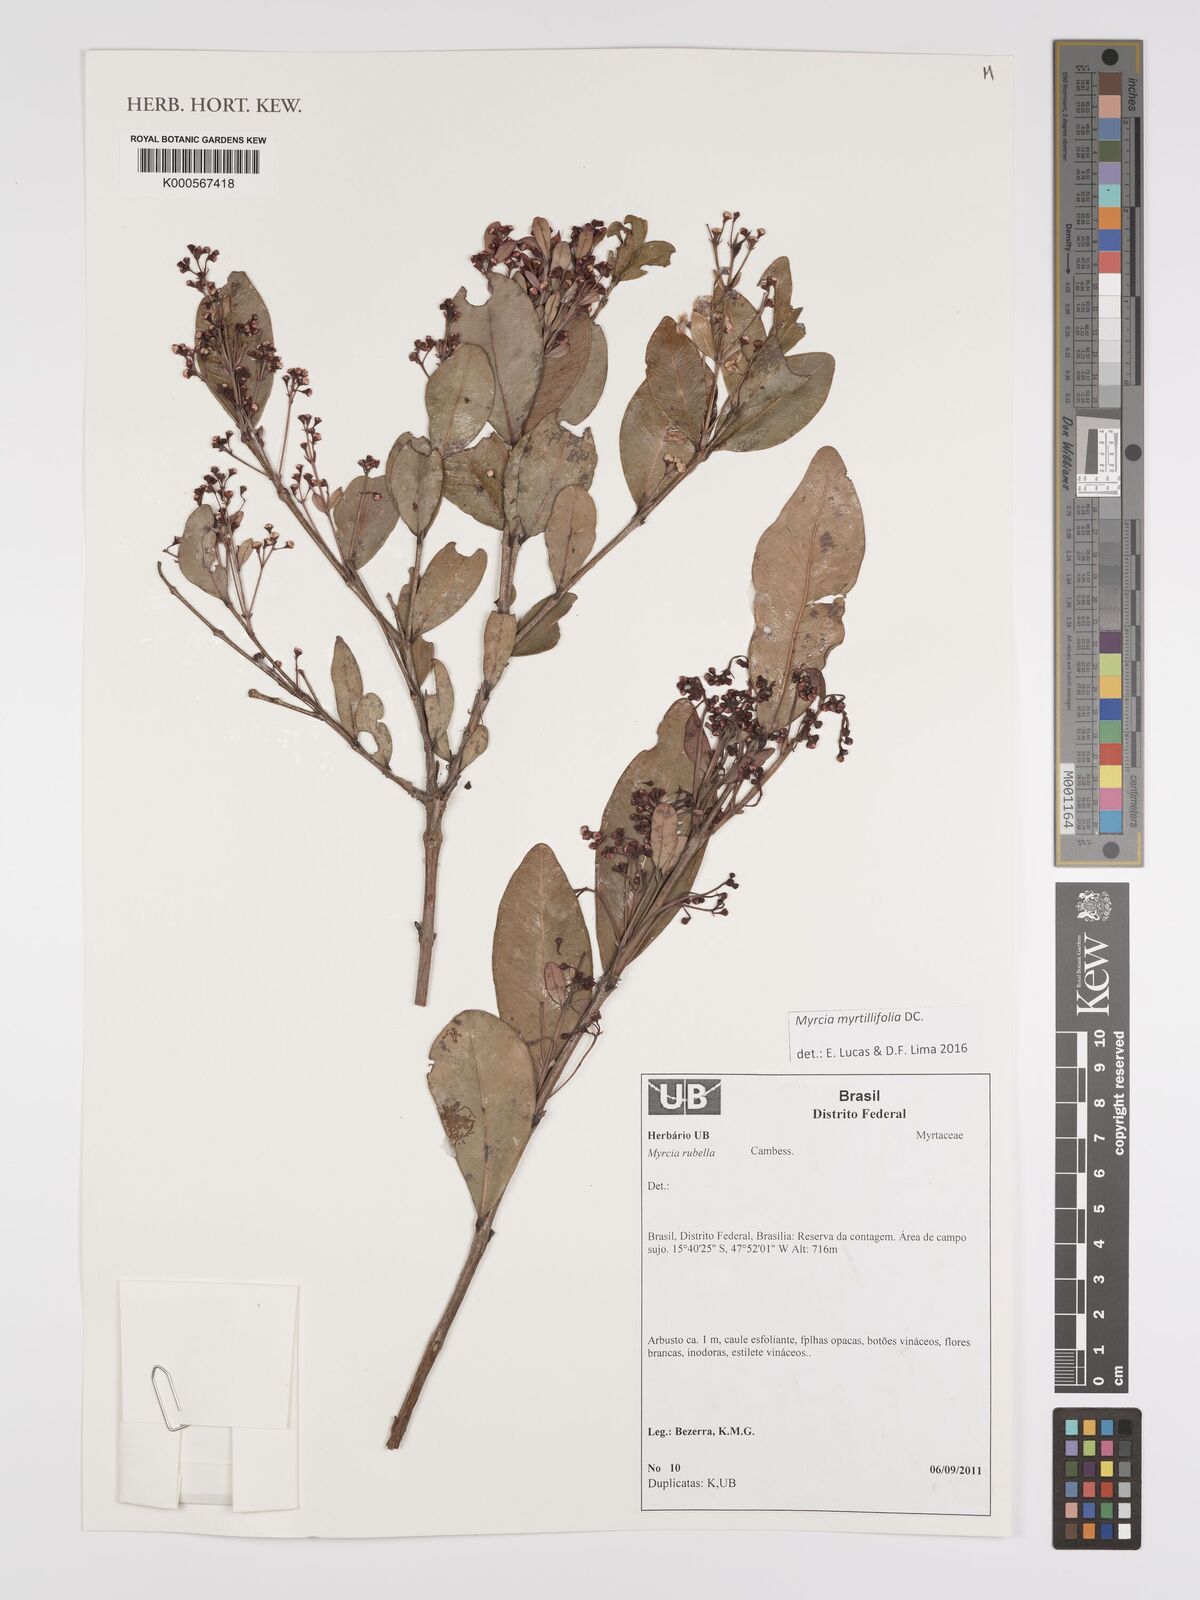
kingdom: Plantae
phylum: Tracheophyta
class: Magnoliopsida
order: Myrtales
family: Myrtaceae
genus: Myrcia
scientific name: Myrcia guianensis
